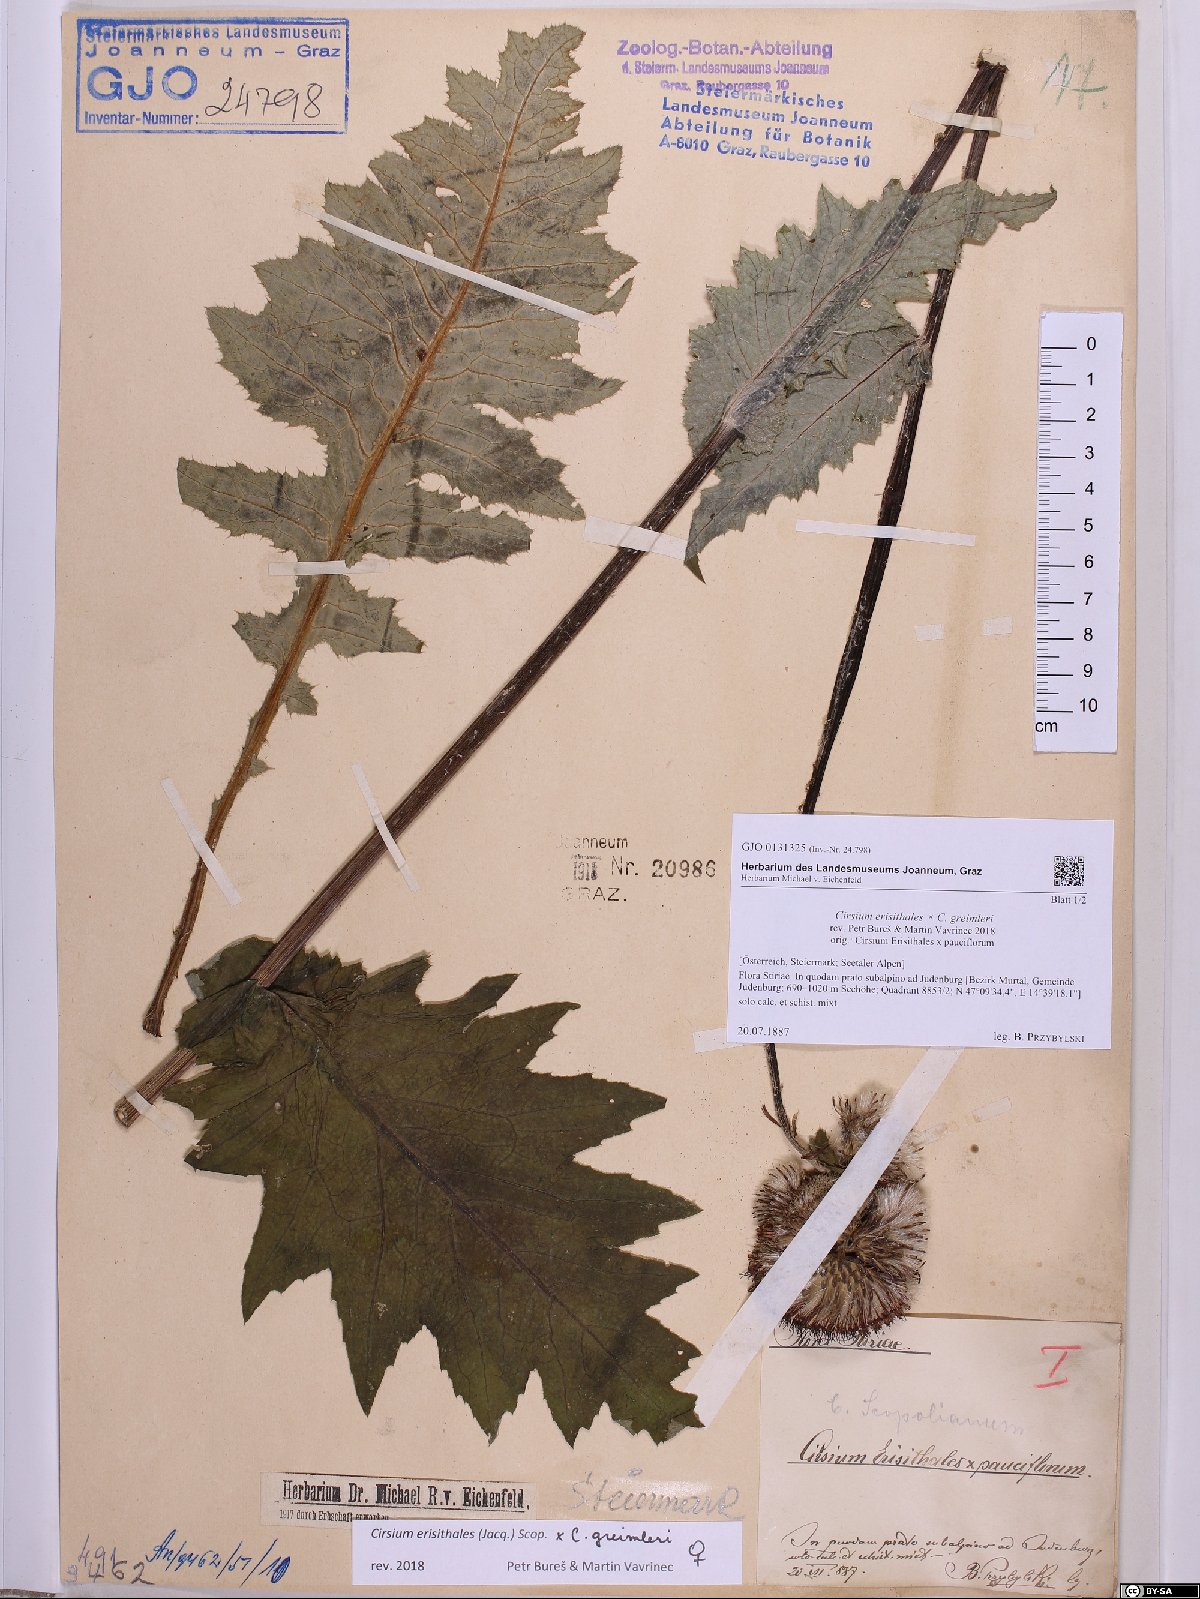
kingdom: Plantae
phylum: Tracheophyta
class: Magnoliopsida
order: Asterales
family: Asteraceae
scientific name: Asteraceae
